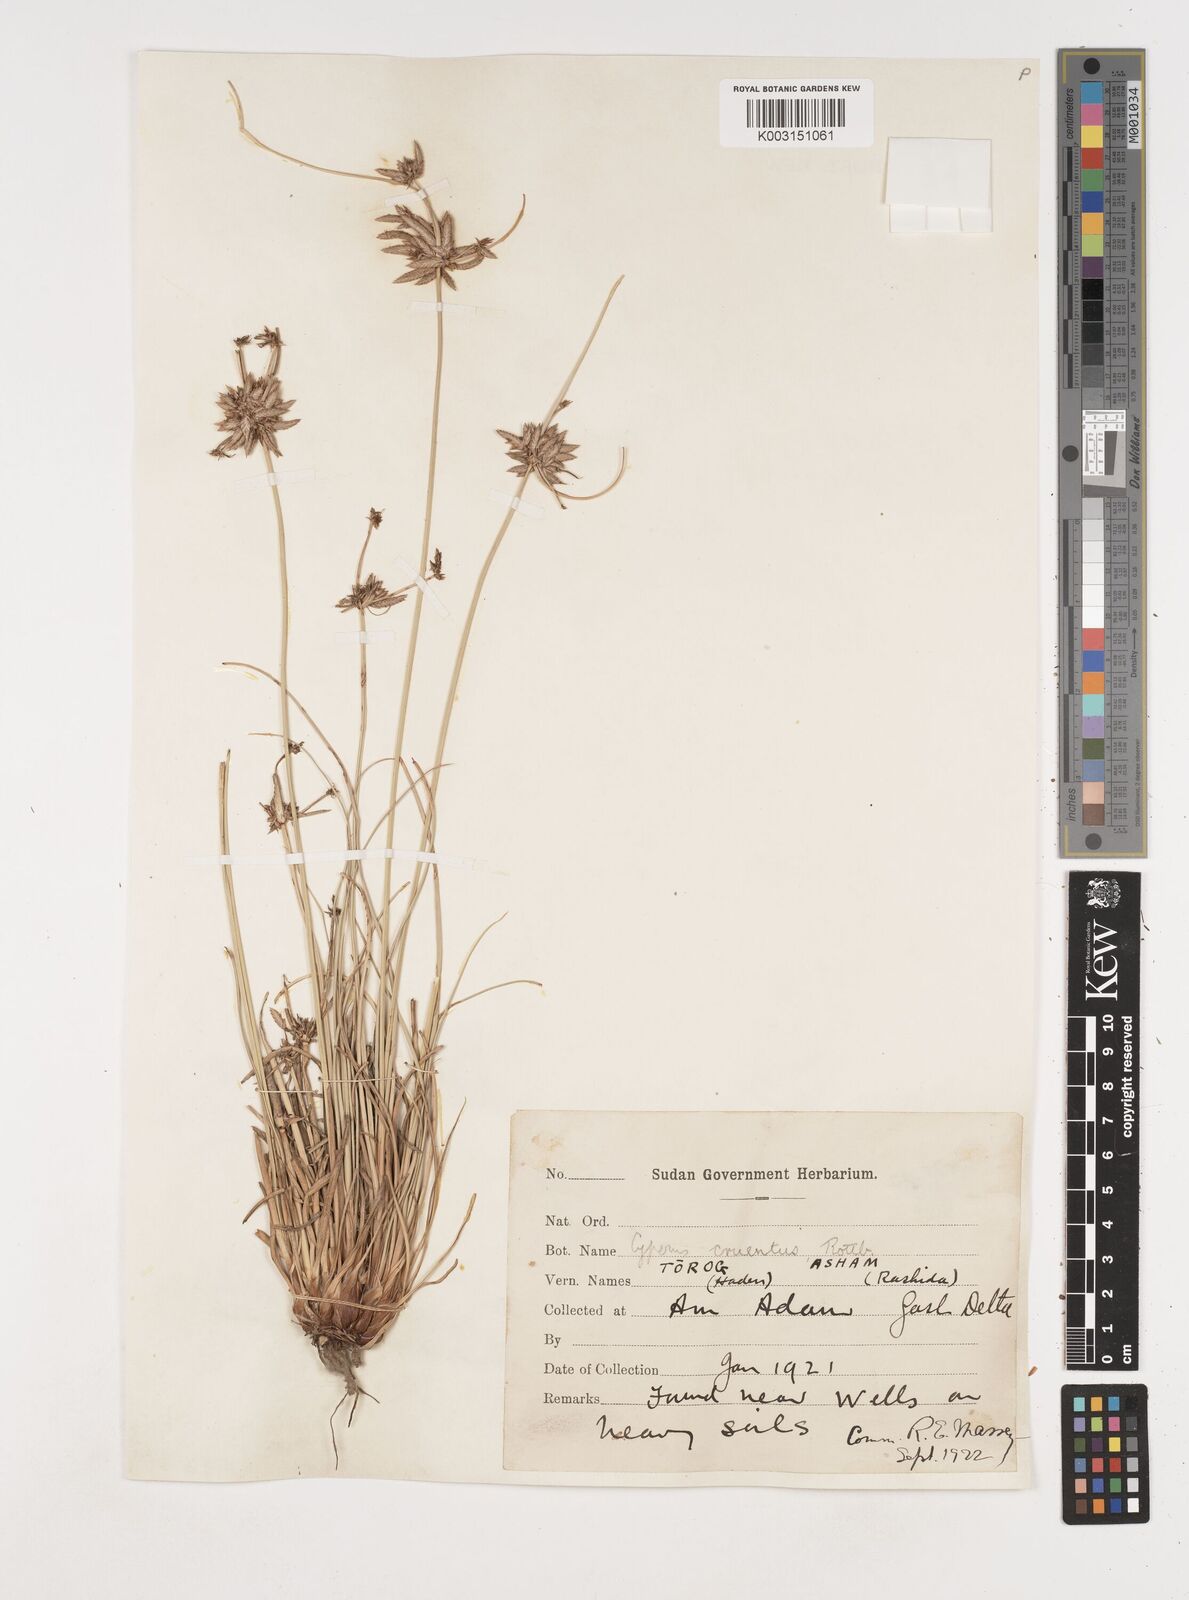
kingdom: Plantae
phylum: Tracheophyta
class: Liliopsida
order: Poales
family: Cyperaceae
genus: Cyperus
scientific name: Cyperus jeminicus
